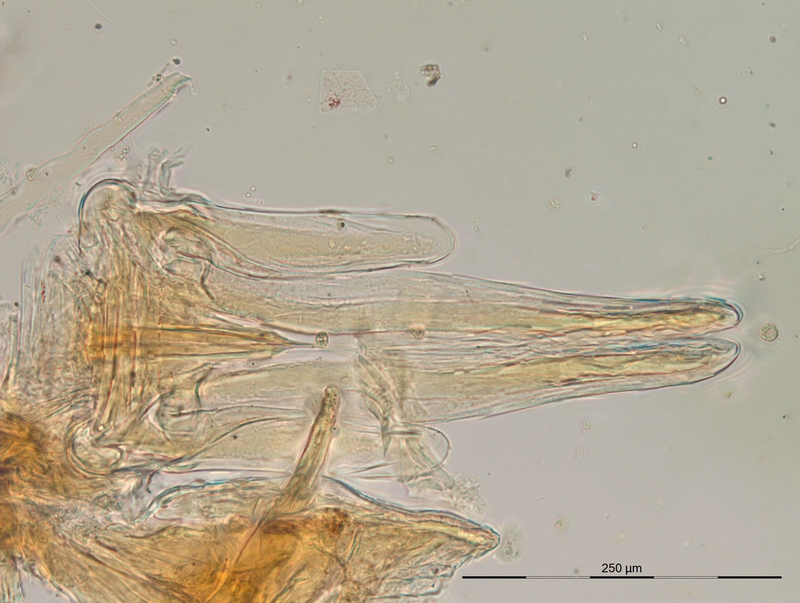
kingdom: Animalia
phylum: Arthropoda
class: Diplopoda
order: Julida
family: Blaniulidae
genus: Nopoiulus
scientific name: Nopoiulus kochii
